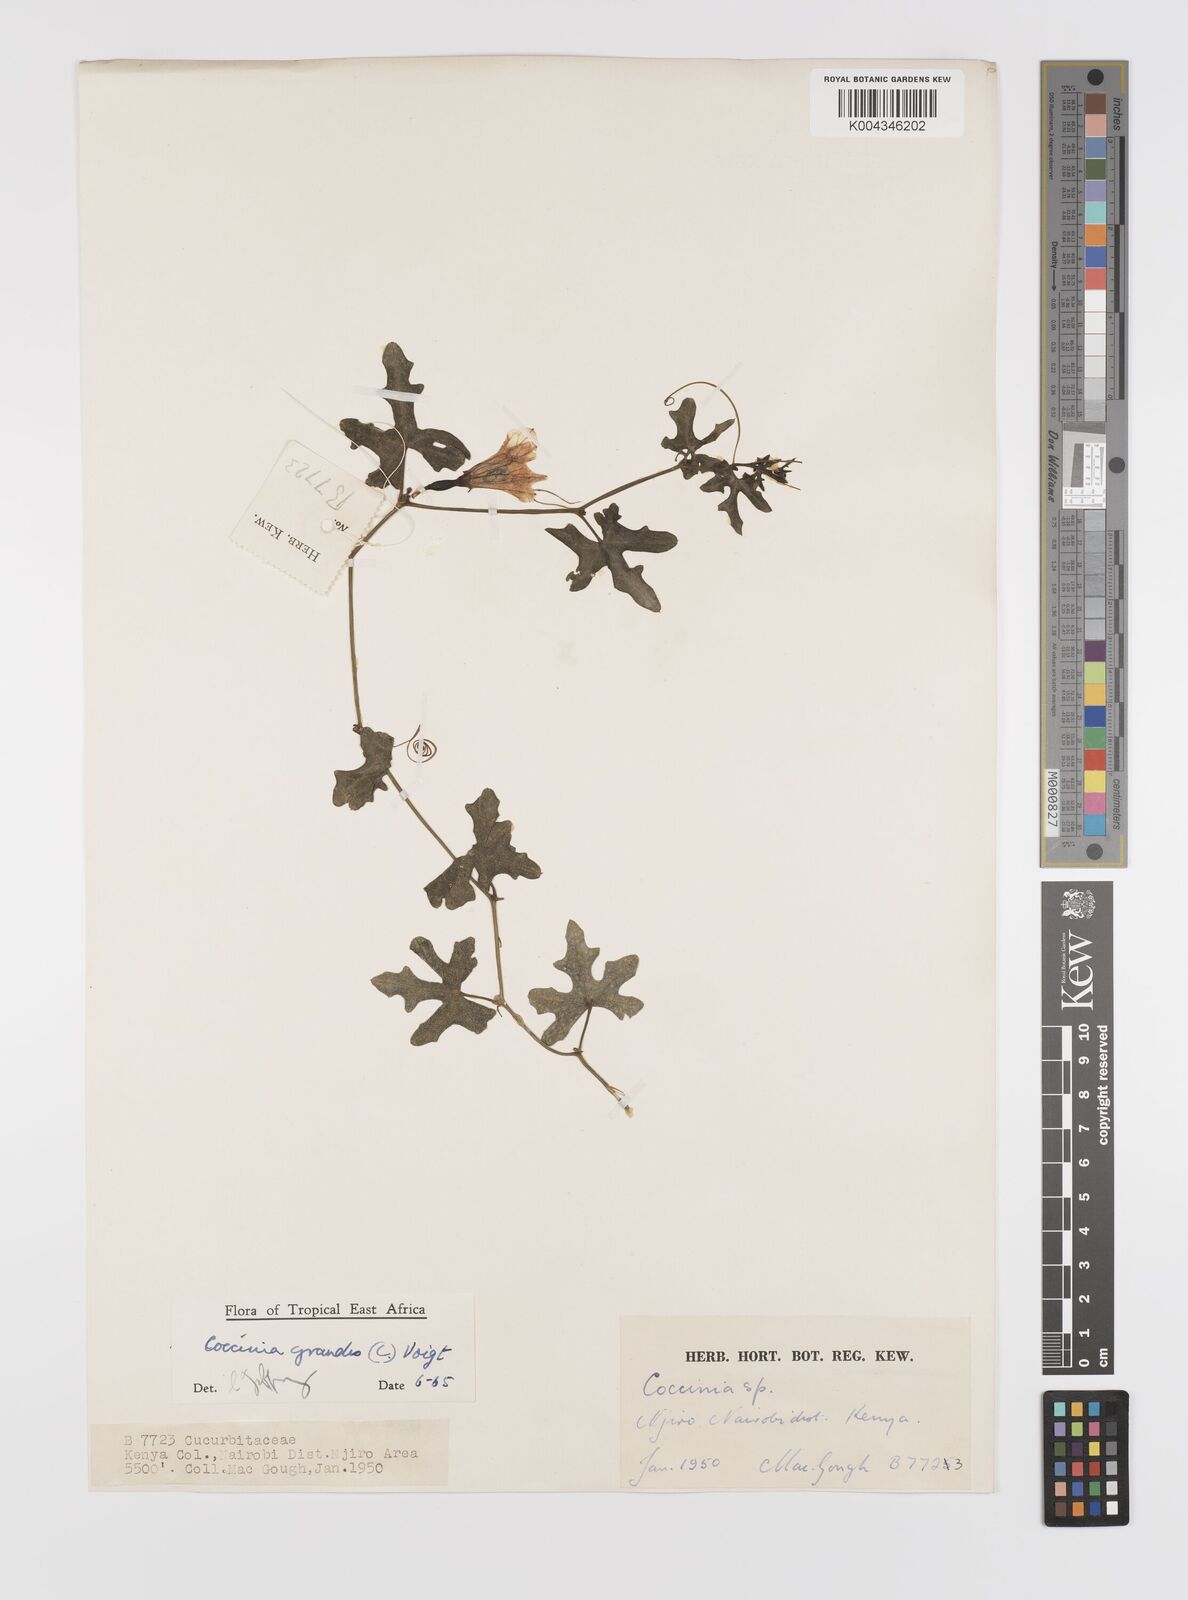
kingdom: Plantae
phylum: Tracheophyta
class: Magnoliopsida
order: Cucurbitales
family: Cucurbitaceae
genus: Coccinia
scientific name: Coccinia grandis
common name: Ivy gourd
